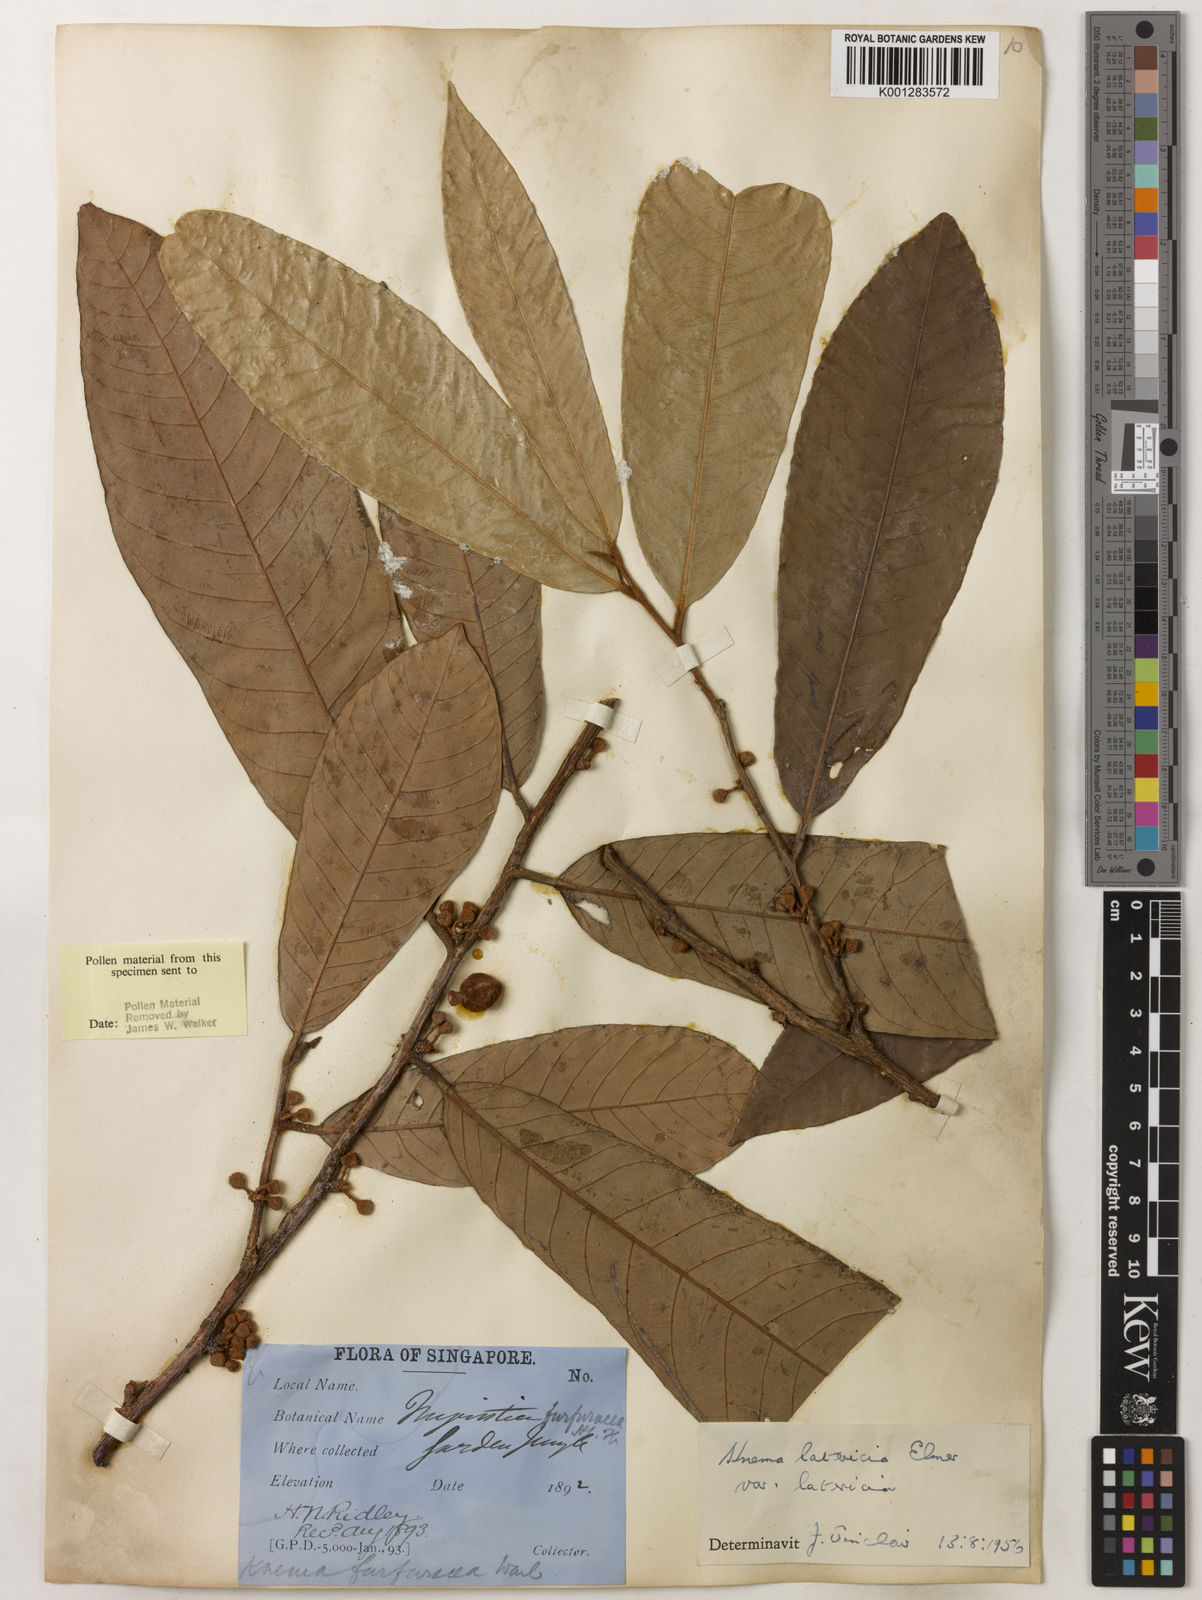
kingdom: Plantae
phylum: Tracheophyta
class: Magnoliopsida
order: Magnoliales
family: Myristicaceae
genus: Knema
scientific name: Knema latericia
